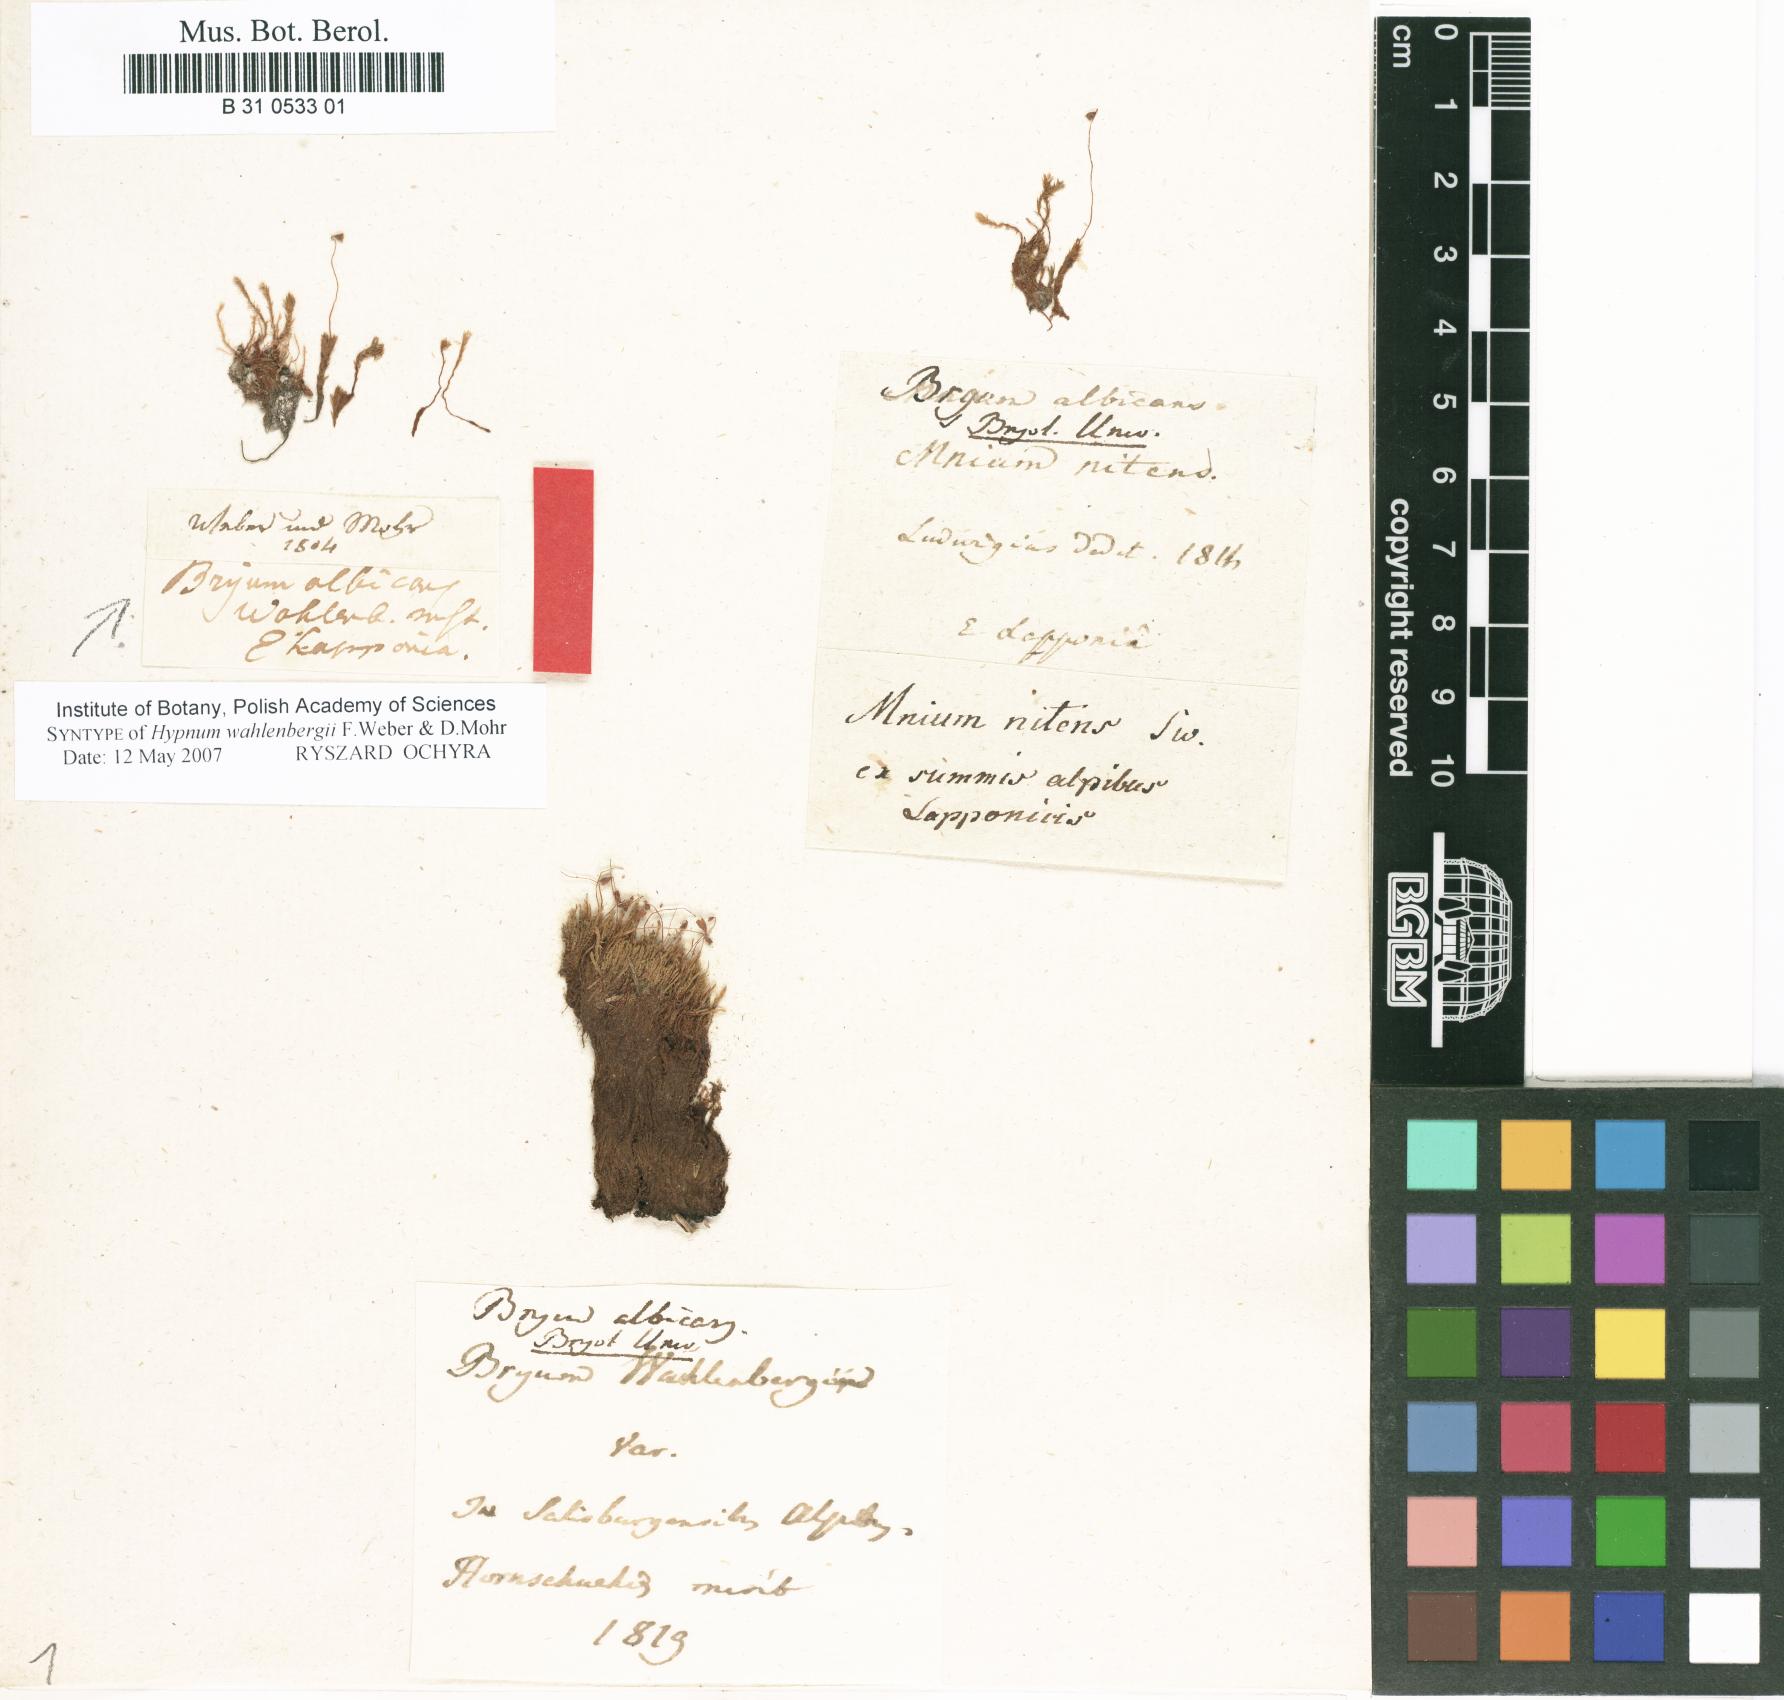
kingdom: Plantae
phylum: Bryophyta
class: Bryopsida
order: Bryales
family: Mniaceae
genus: Pohlia
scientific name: Pohlia wahlenbergii
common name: Wahlenberg's nodding moss
